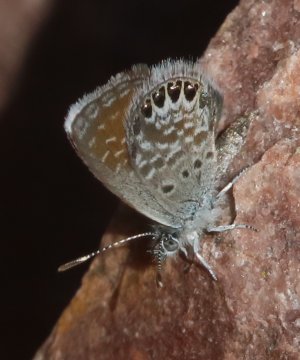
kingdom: Animalia
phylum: Arthropoda
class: Insecta
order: Lepidoptera
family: Lycaenidae
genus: Brephidium
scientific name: Brephidium exilis
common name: Western Pygmy-Blue
